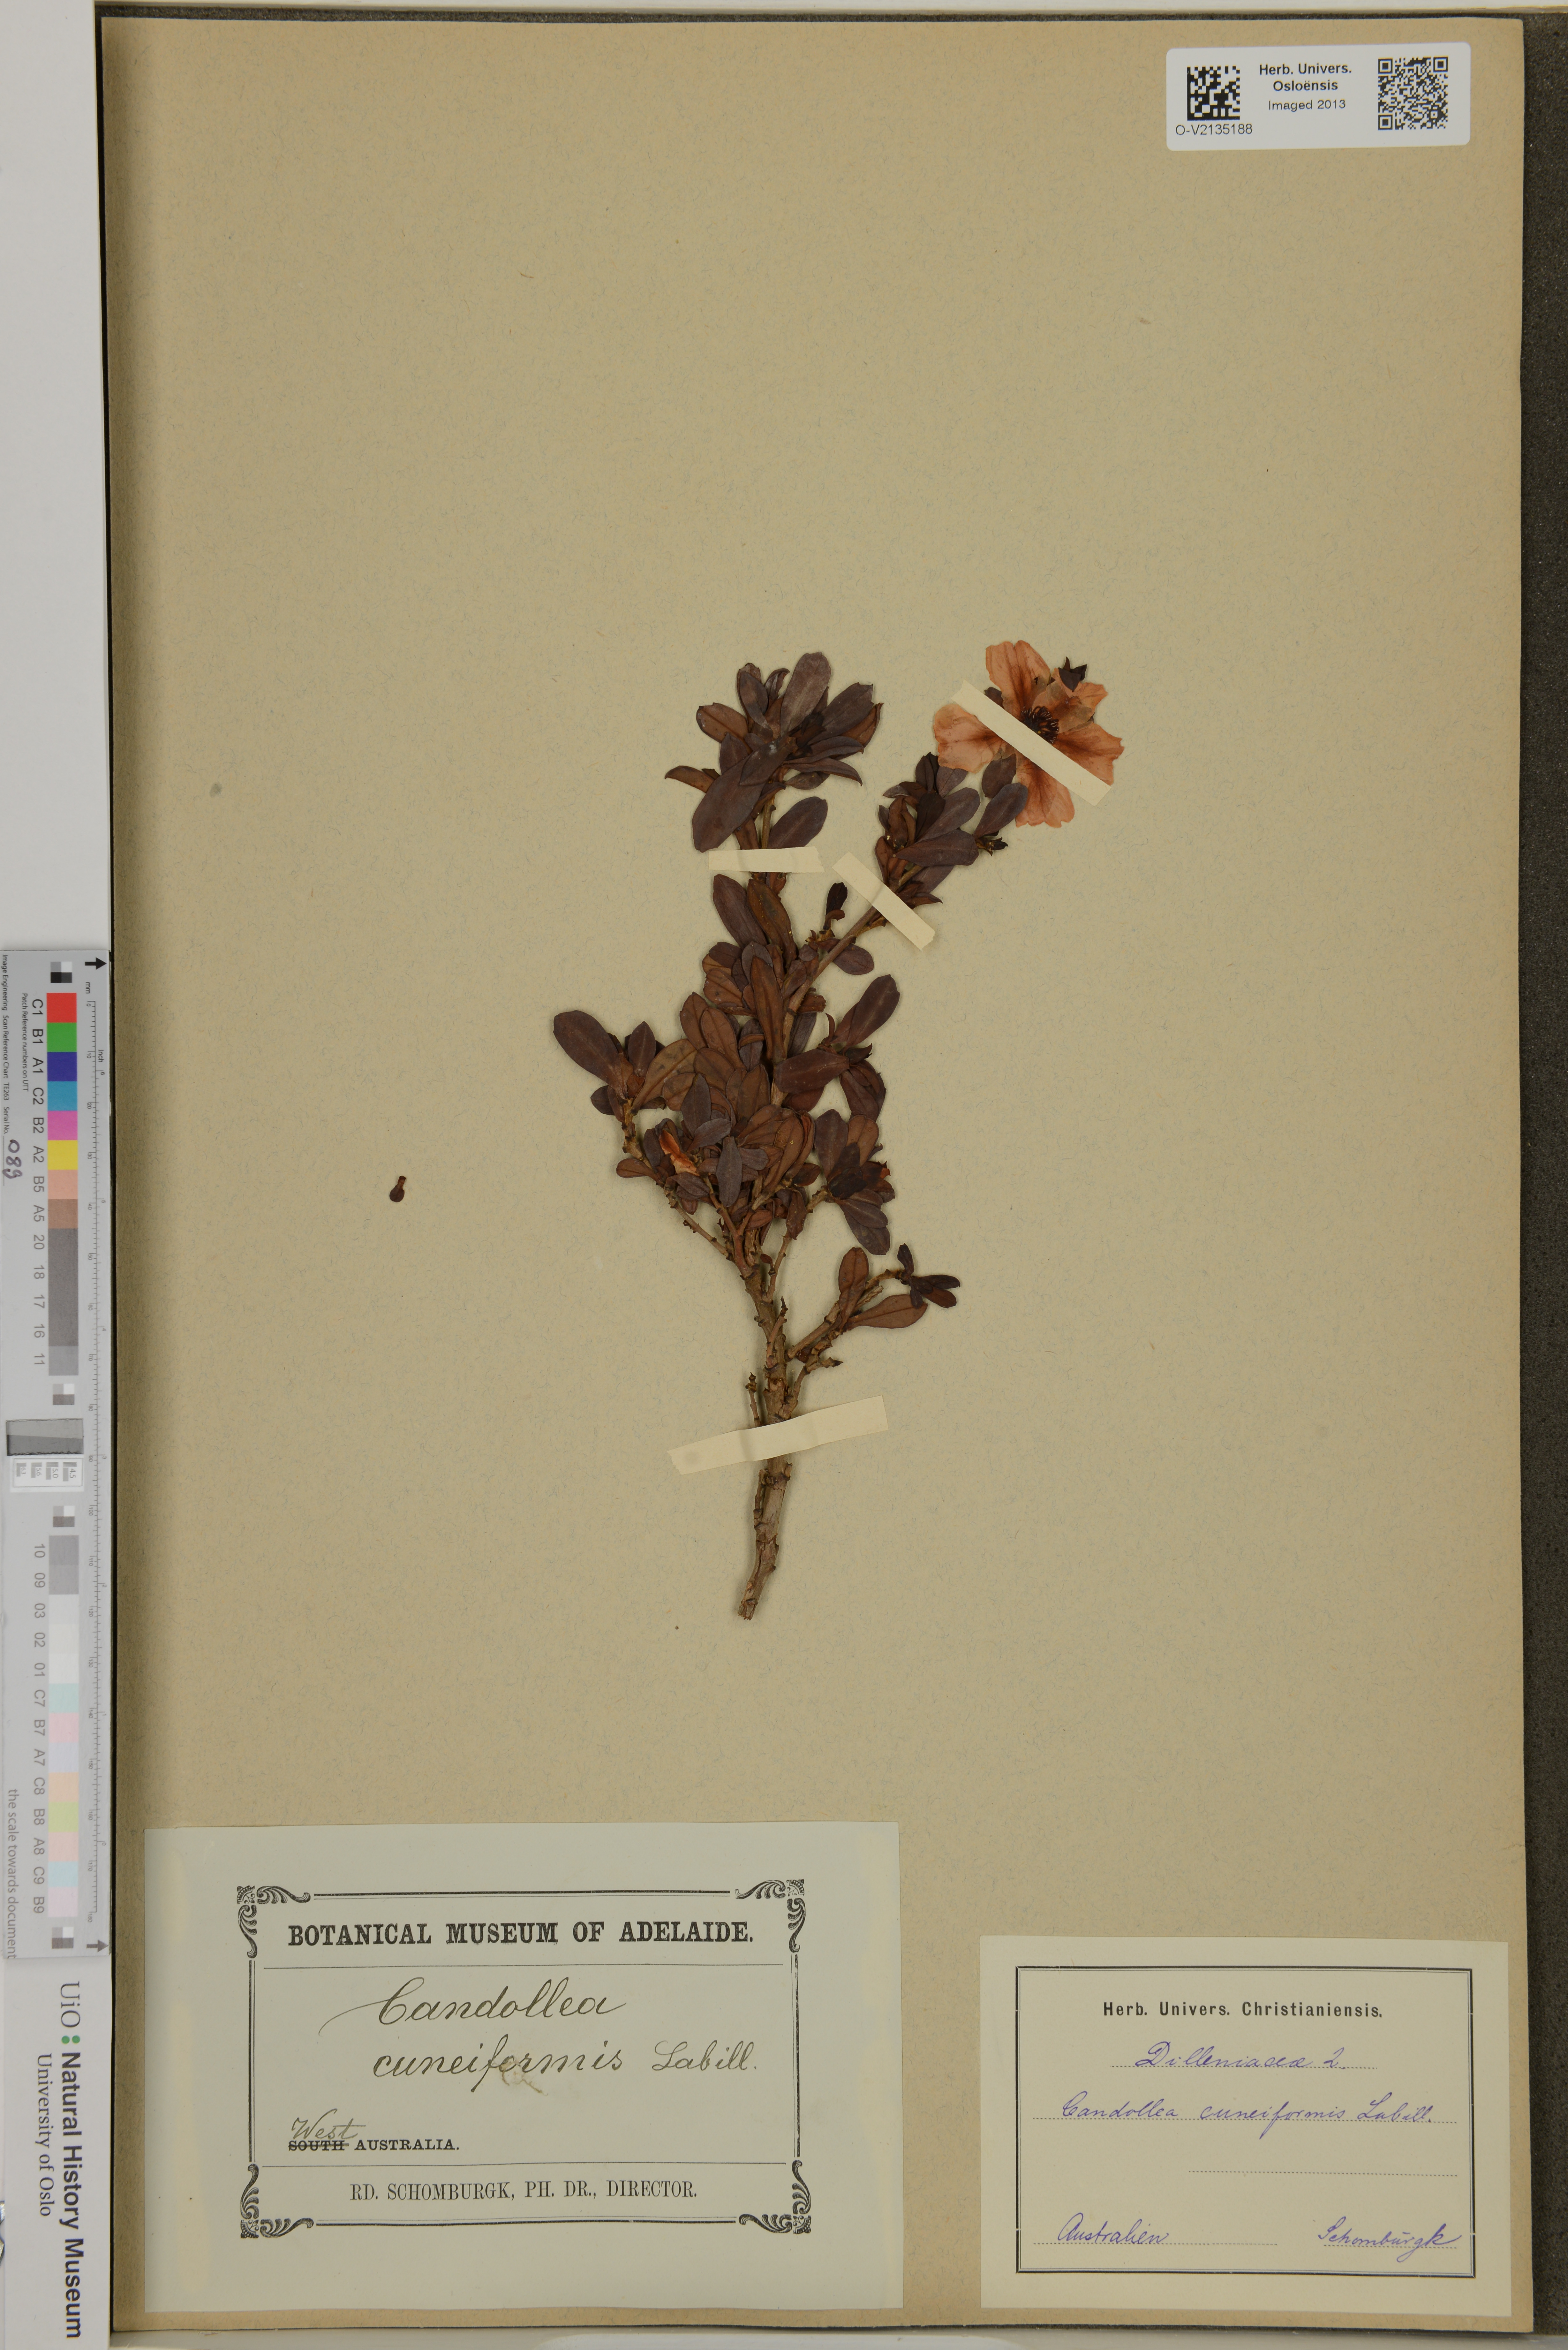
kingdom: Plantae
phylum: Tracheophyta
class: Magnoliopsida
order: Dilleniales
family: Dilleniaceae
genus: Hibbertia
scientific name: Hibbertia cuneiformis
